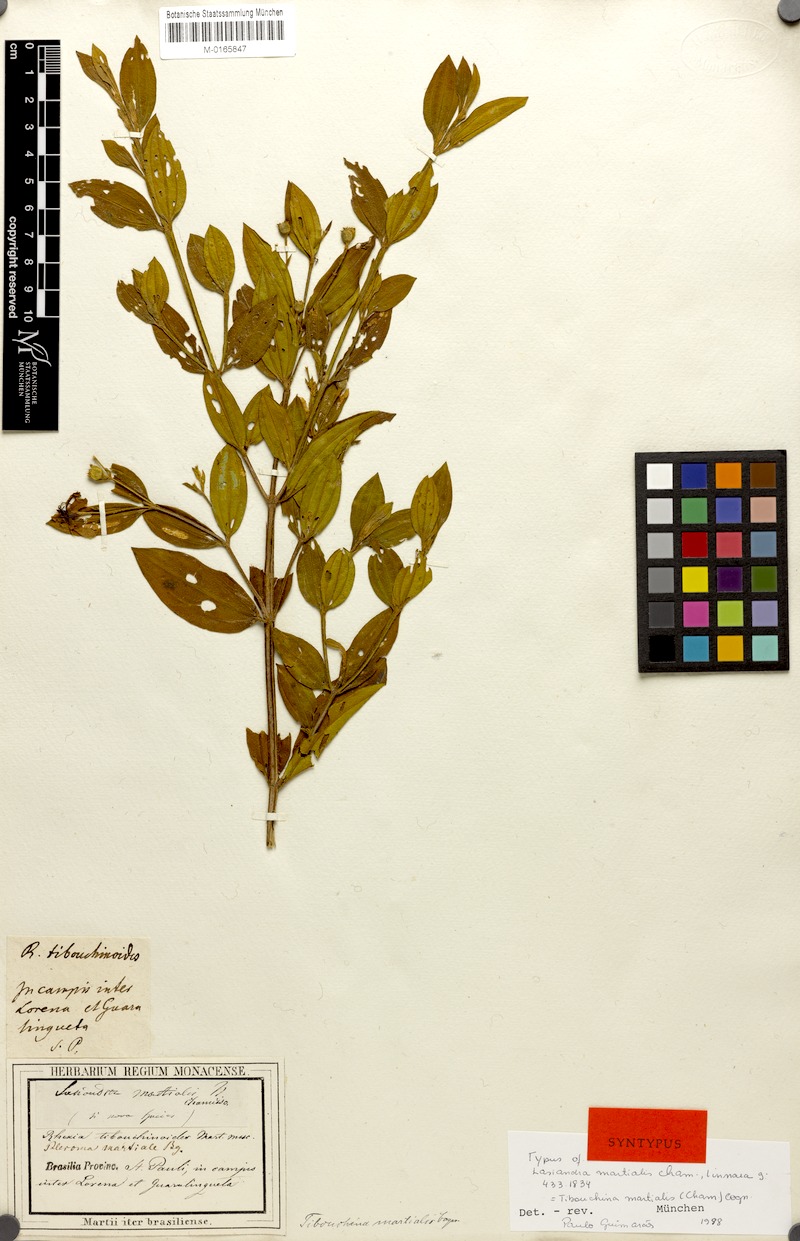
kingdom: Plantae
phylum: Tracheophyta
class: Magnoliopsida
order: Myrtales
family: Melastomataceae
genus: Pleroma
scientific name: Pleroma martiale
